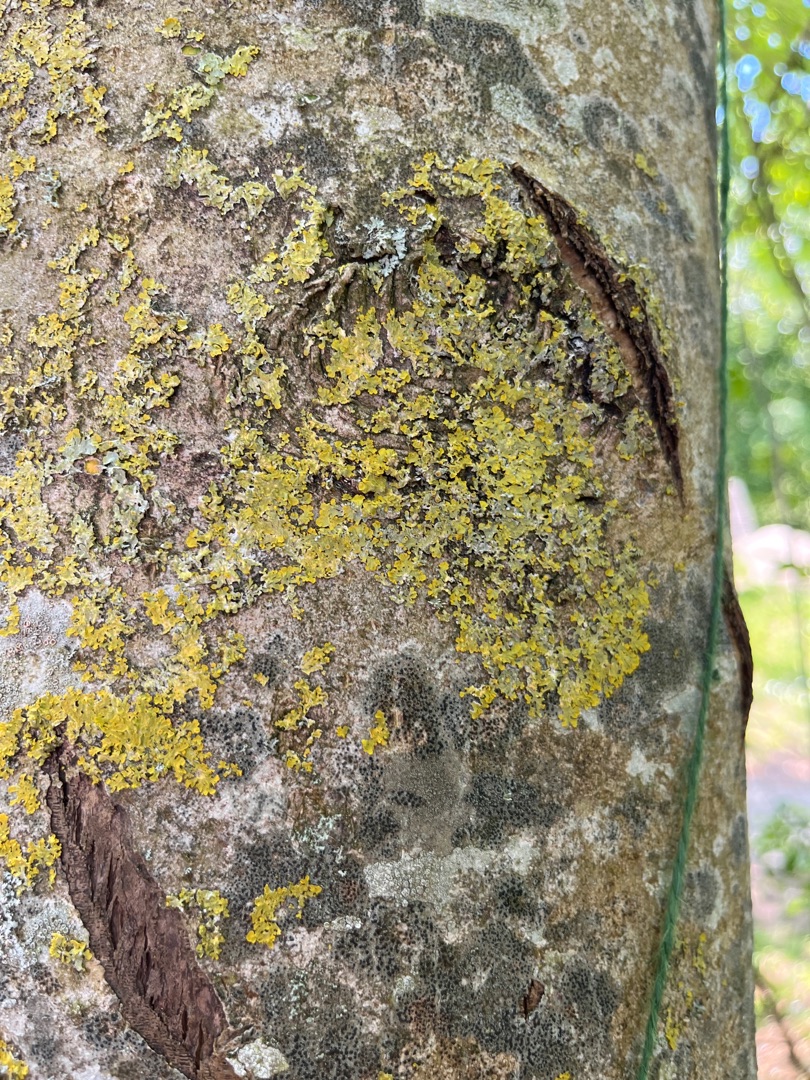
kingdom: Fungi
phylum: Ascomycota
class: Lecanoromycetes
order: Teloschistales
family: Teloschistaceae
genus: Xanthoria
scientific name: Xanthoria parietina
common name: Almindelig væggelav
